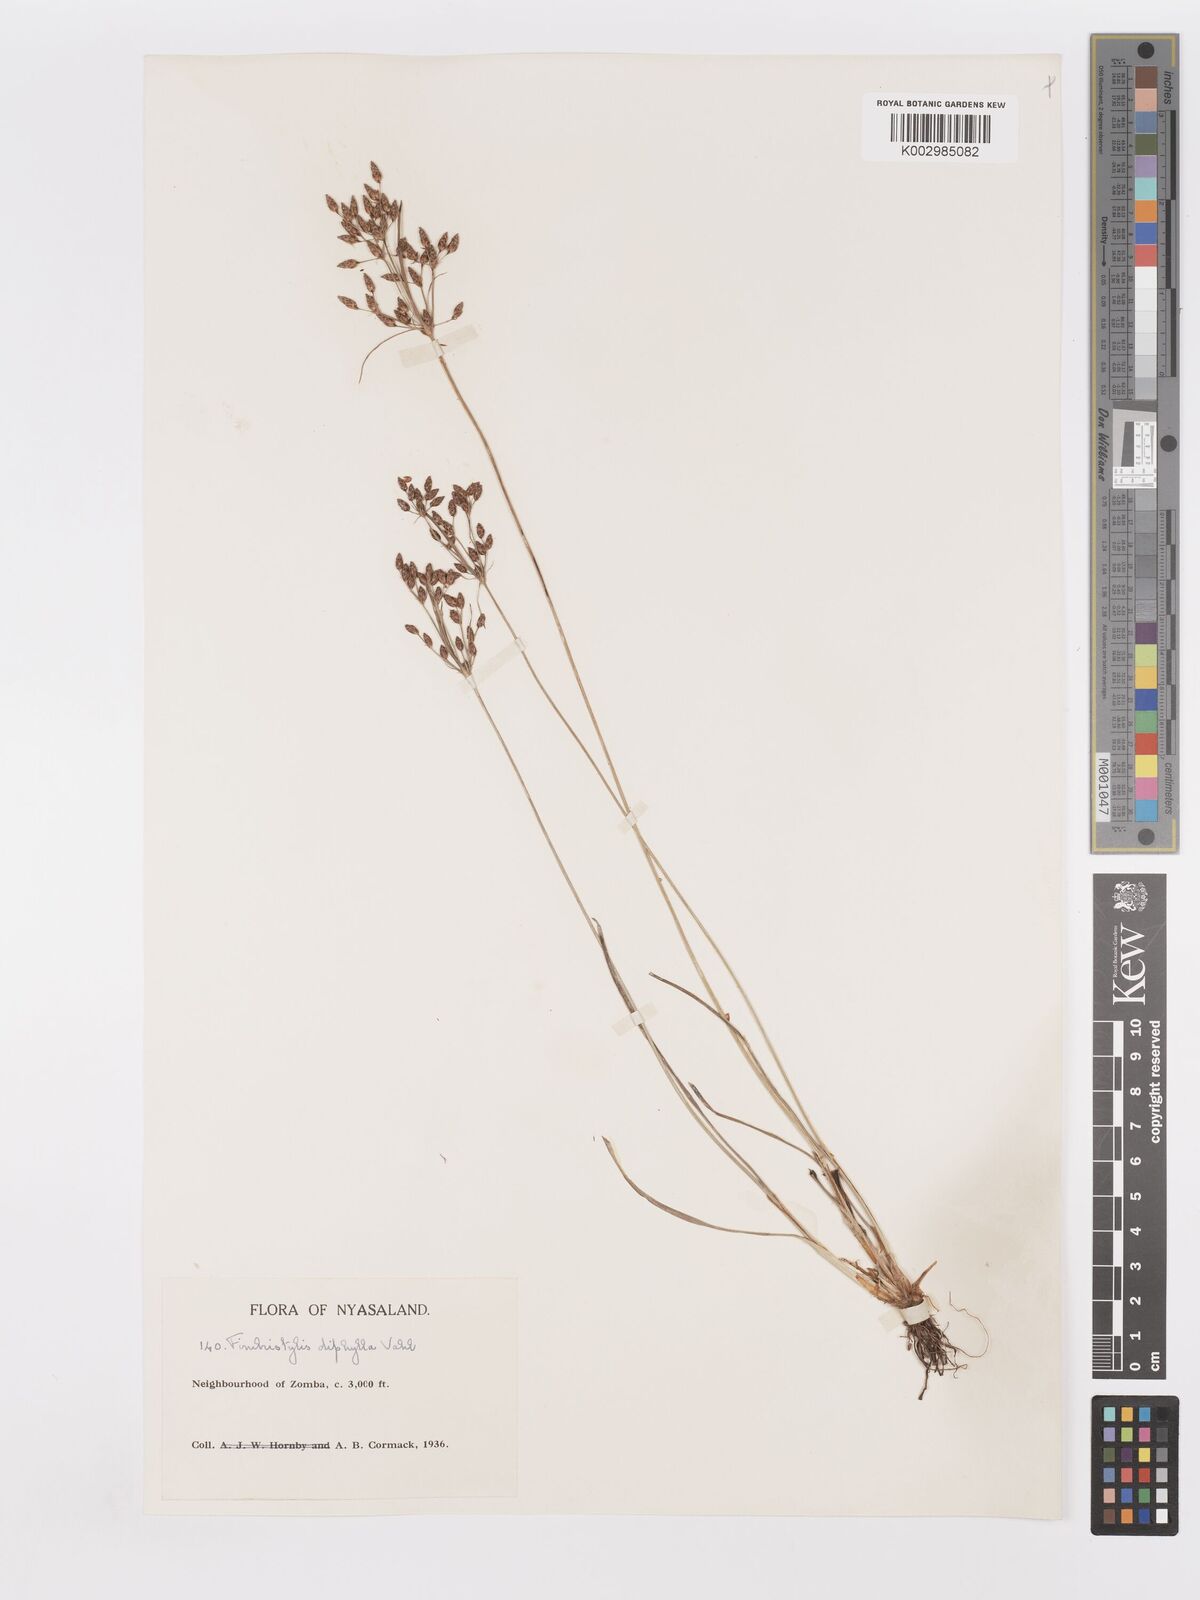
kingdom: Plantae
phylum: Tracheophyta
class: Liliopsida
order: Poales
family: Cyperaceae
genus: Fimbristylis
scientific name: Fimbristylis dichotoma
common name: Forked fimbry
